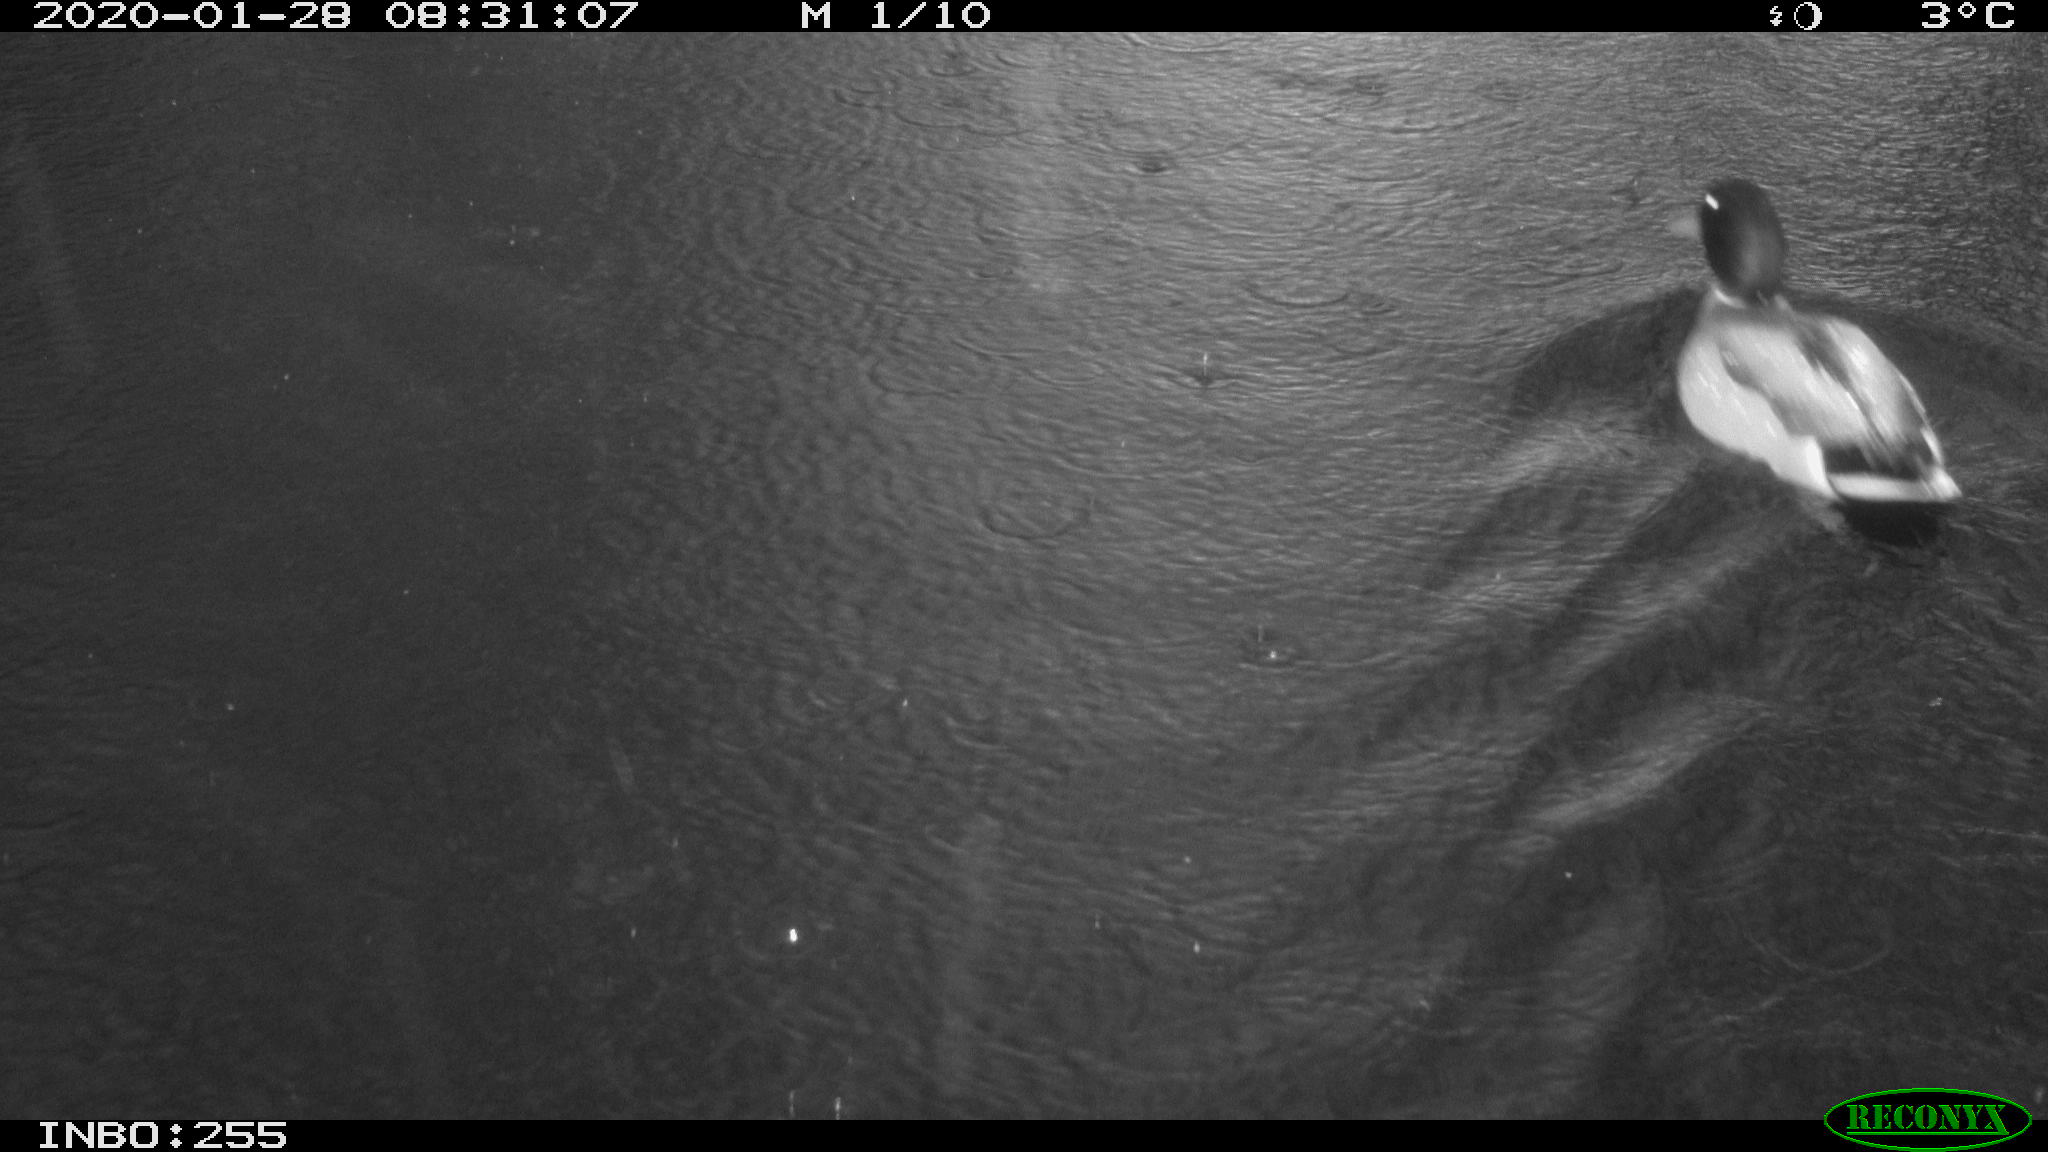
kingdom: Animalia
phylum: Chordata
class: Aves
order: Anseriformes
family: Anatidae
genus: Anas
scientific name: Anas platyrhynchos
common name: Mallard
